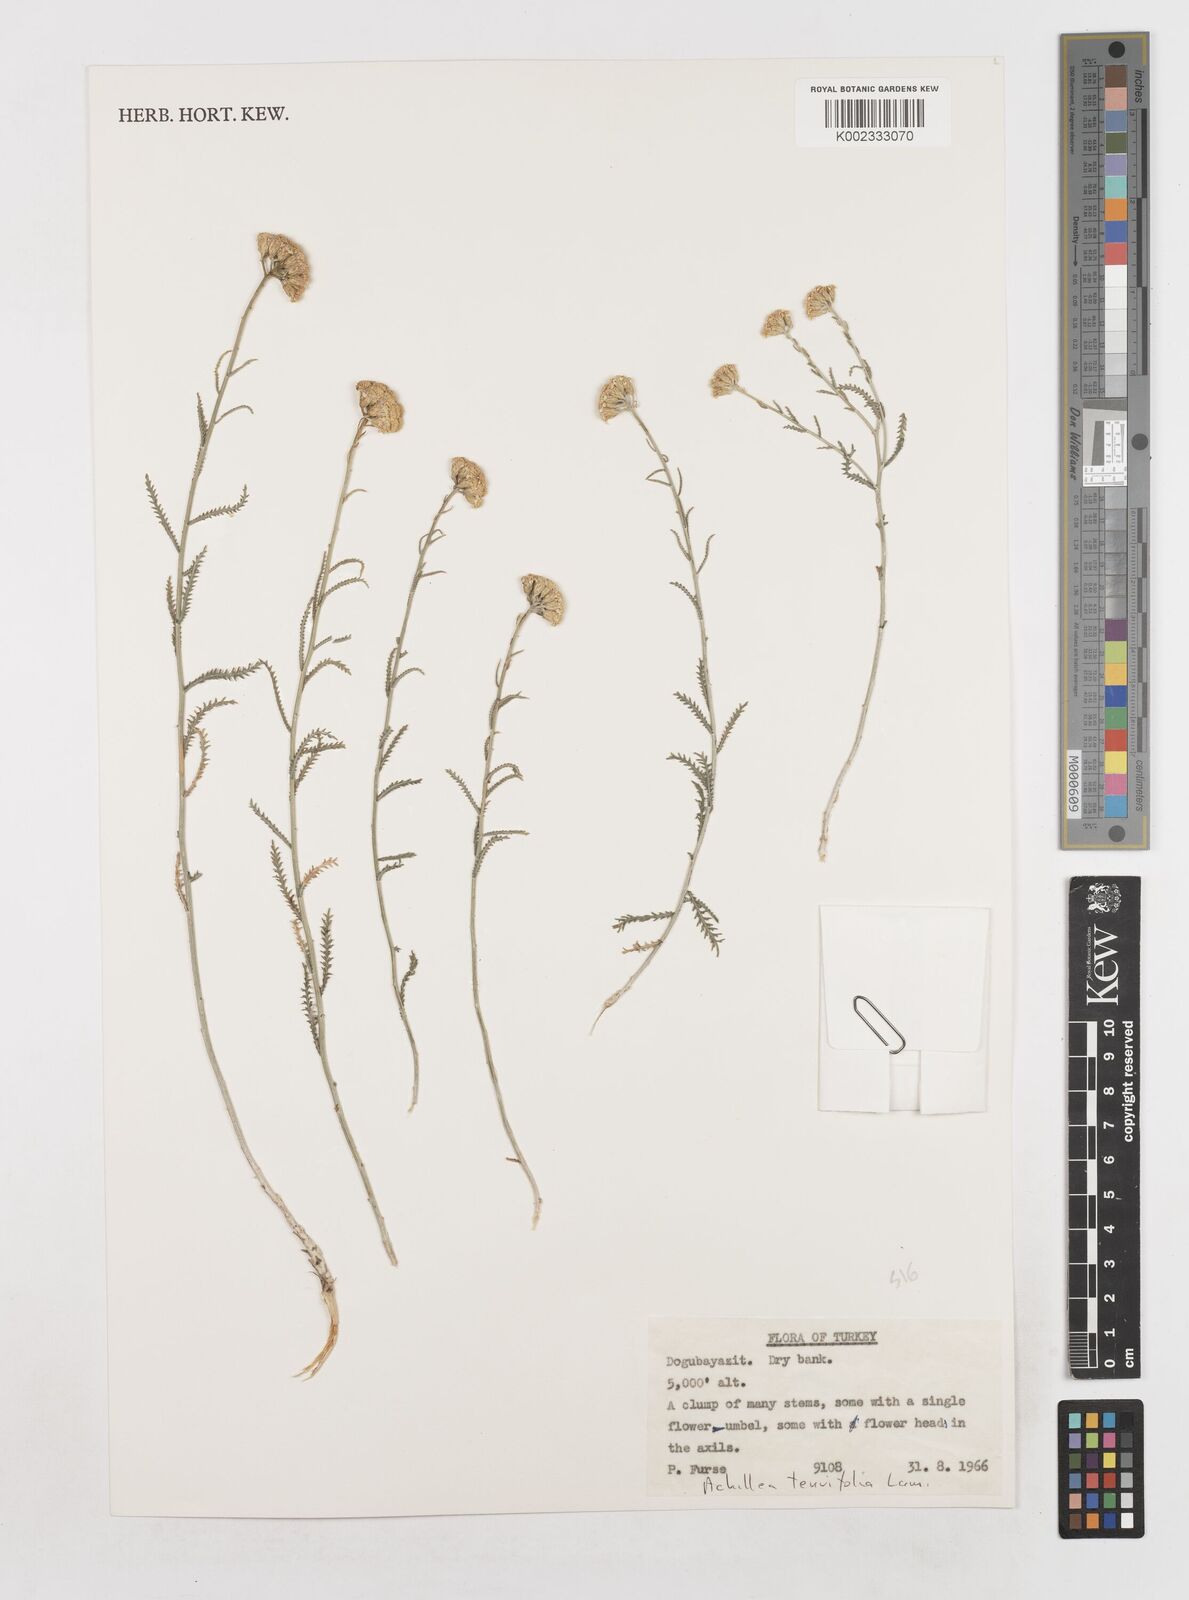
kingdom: Plantae
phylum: Tracheophyta
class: Magnoliopsida
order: Asterales
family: Asteraceae
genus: Achillea
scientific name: Achillea tenuifolia
